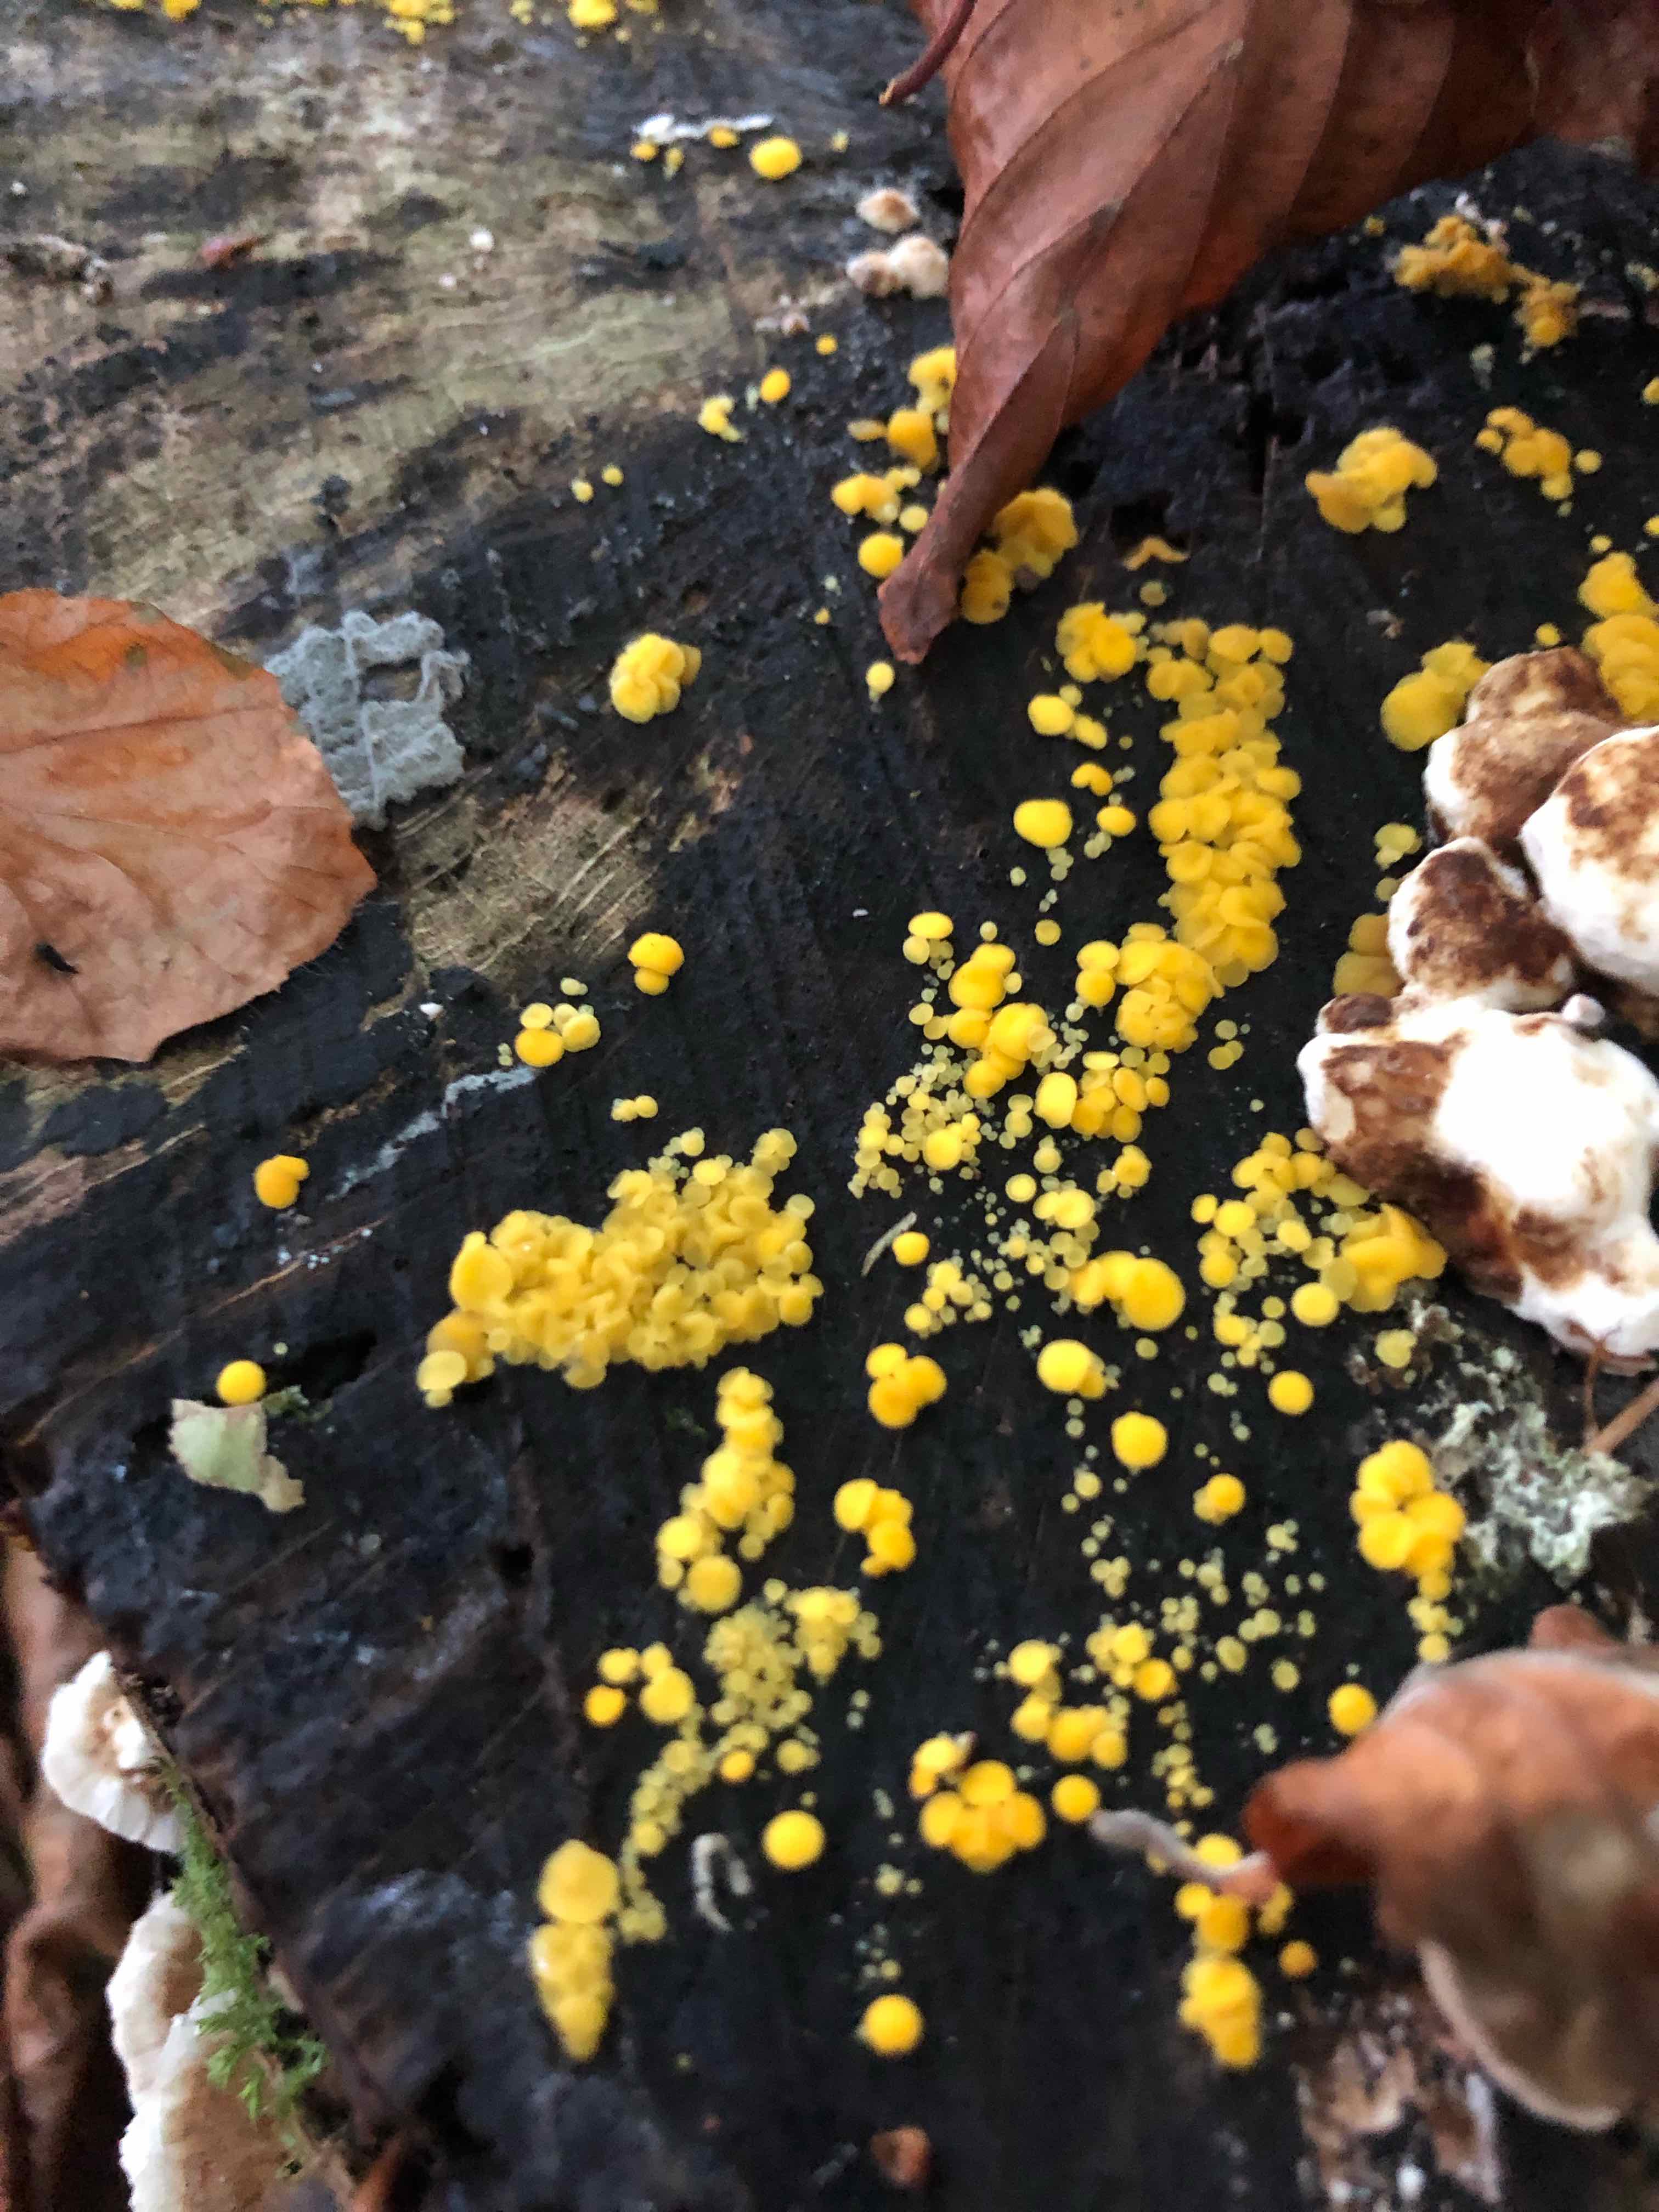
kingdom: Fungi
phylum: Ascomycota
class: Leotiomycetes
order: Helotiales
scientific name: Helotiales
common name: stilkskiveordenen
